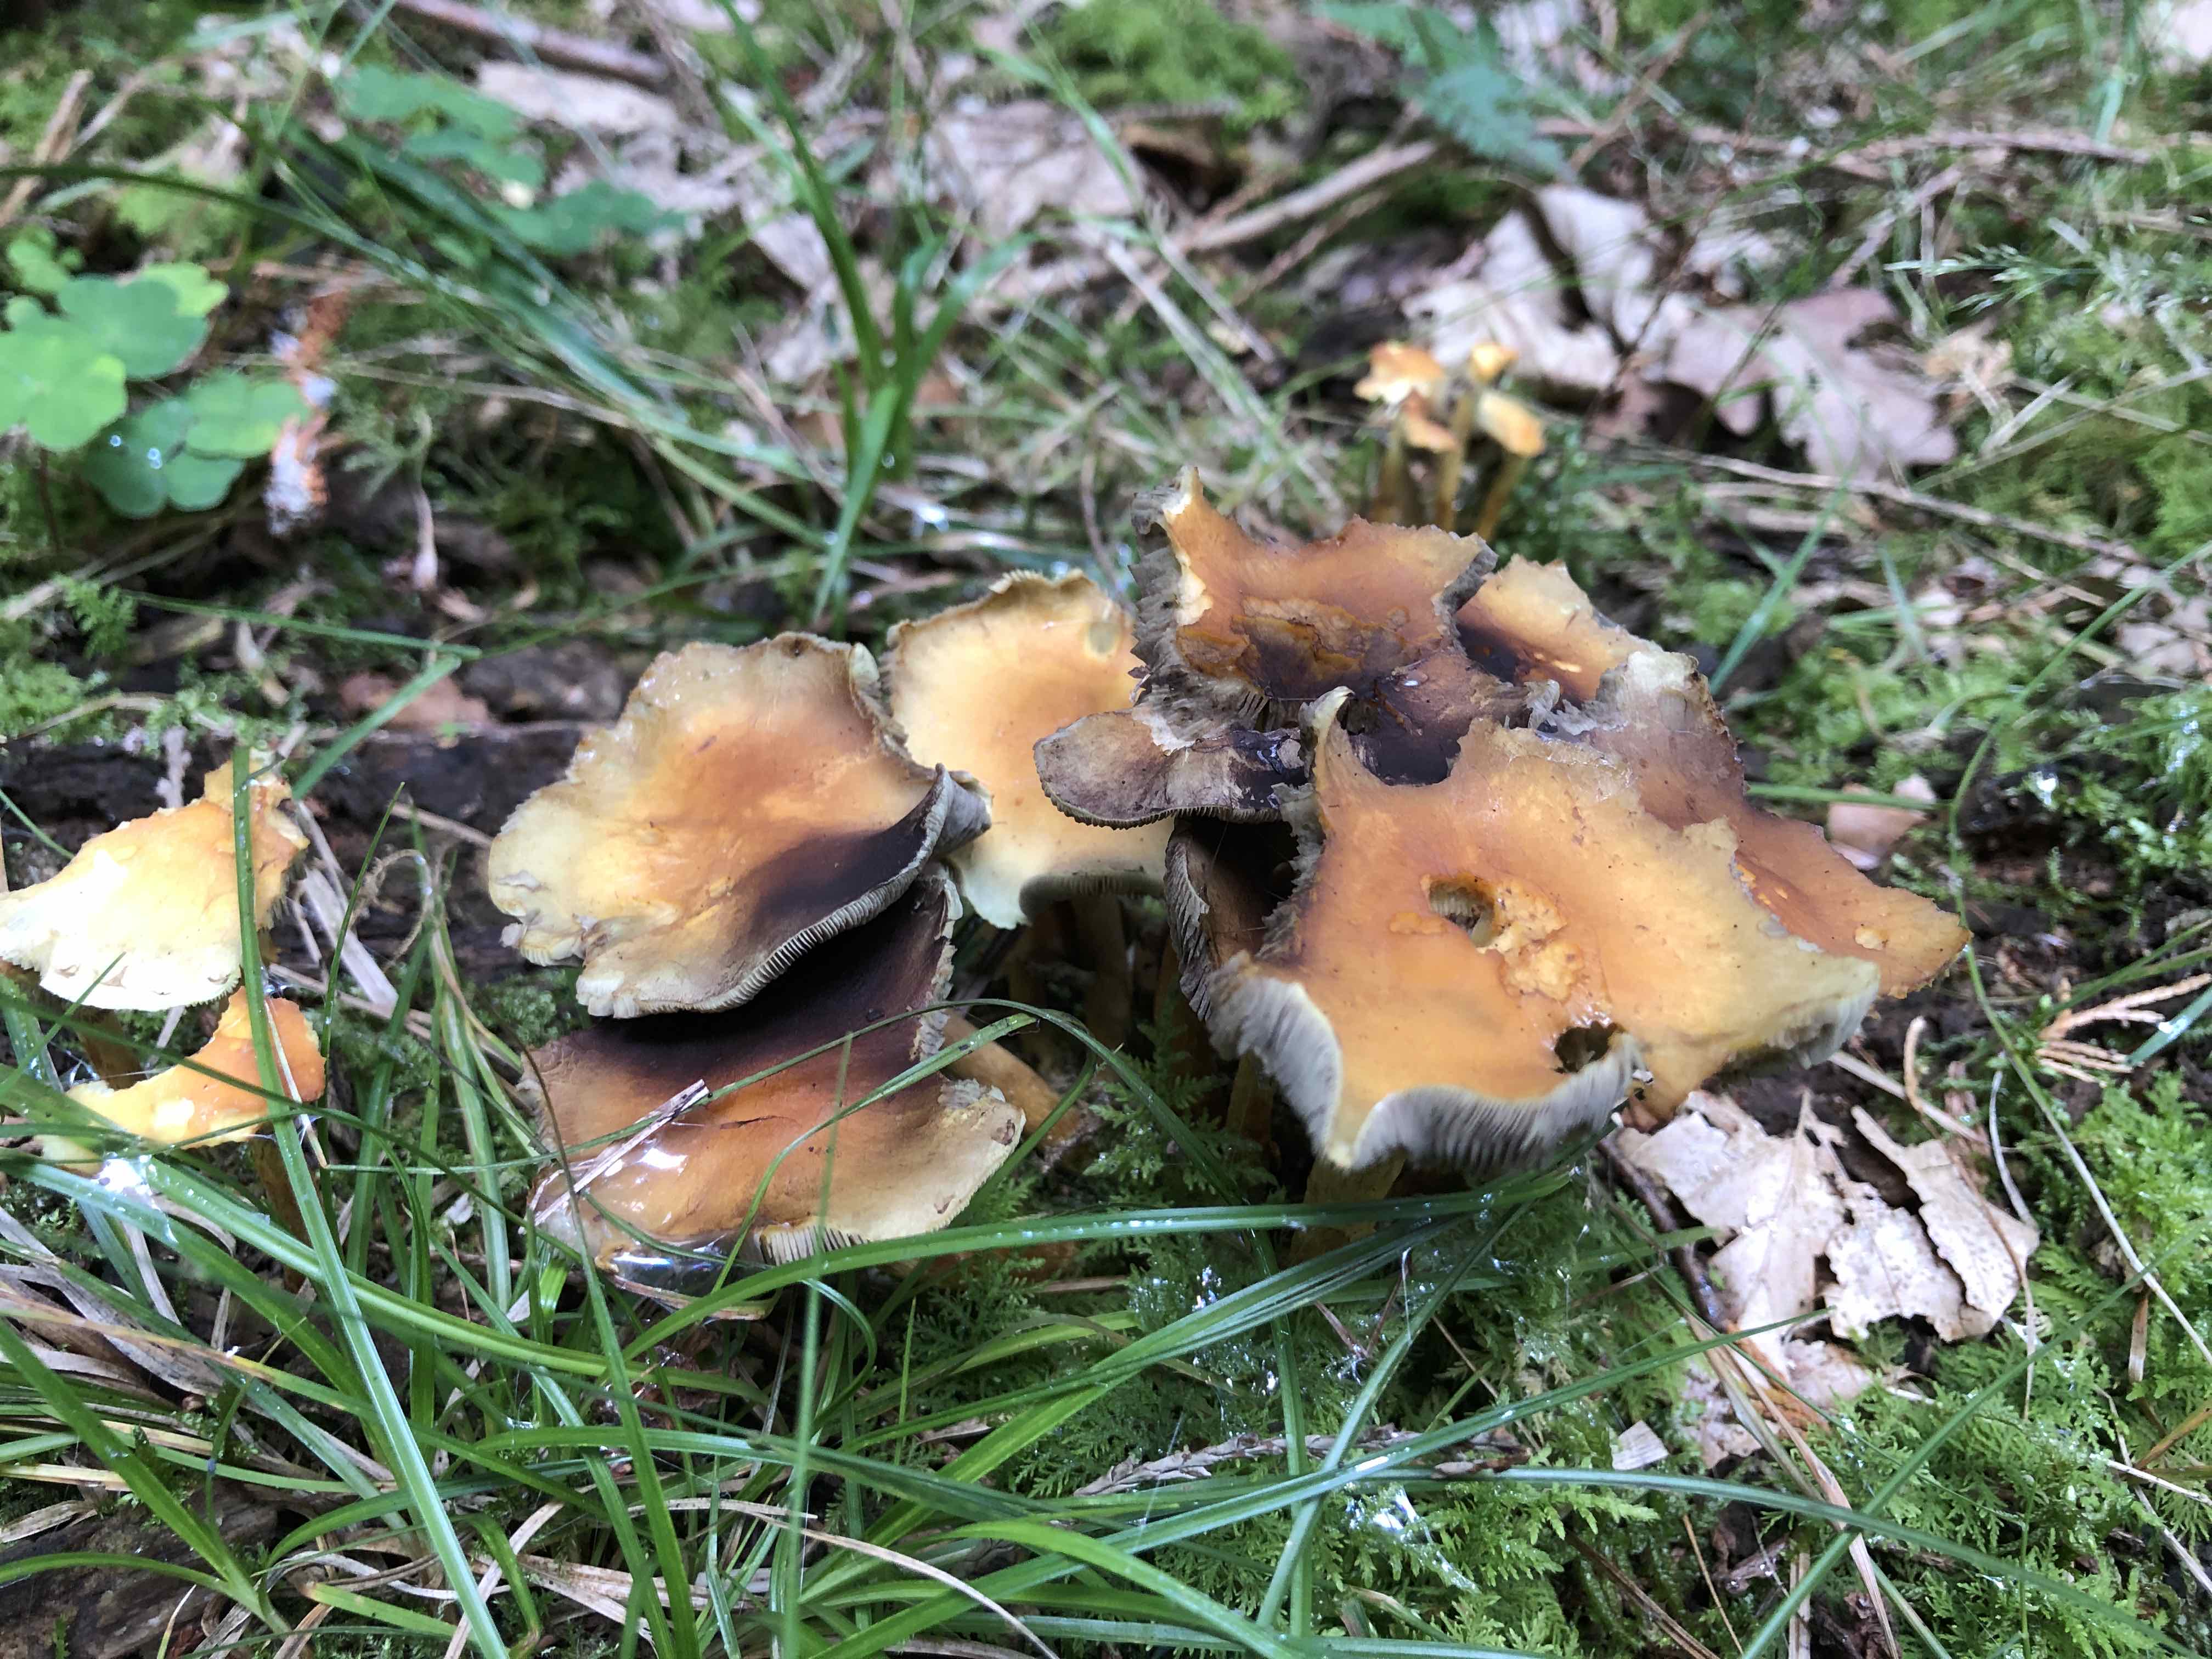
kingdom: Fungi
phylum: Basidiomycota
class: Agaricomycetes
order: Agaricales
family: Strophariaceae
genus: Hypholoma
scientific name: Hypholoma fasciculare
